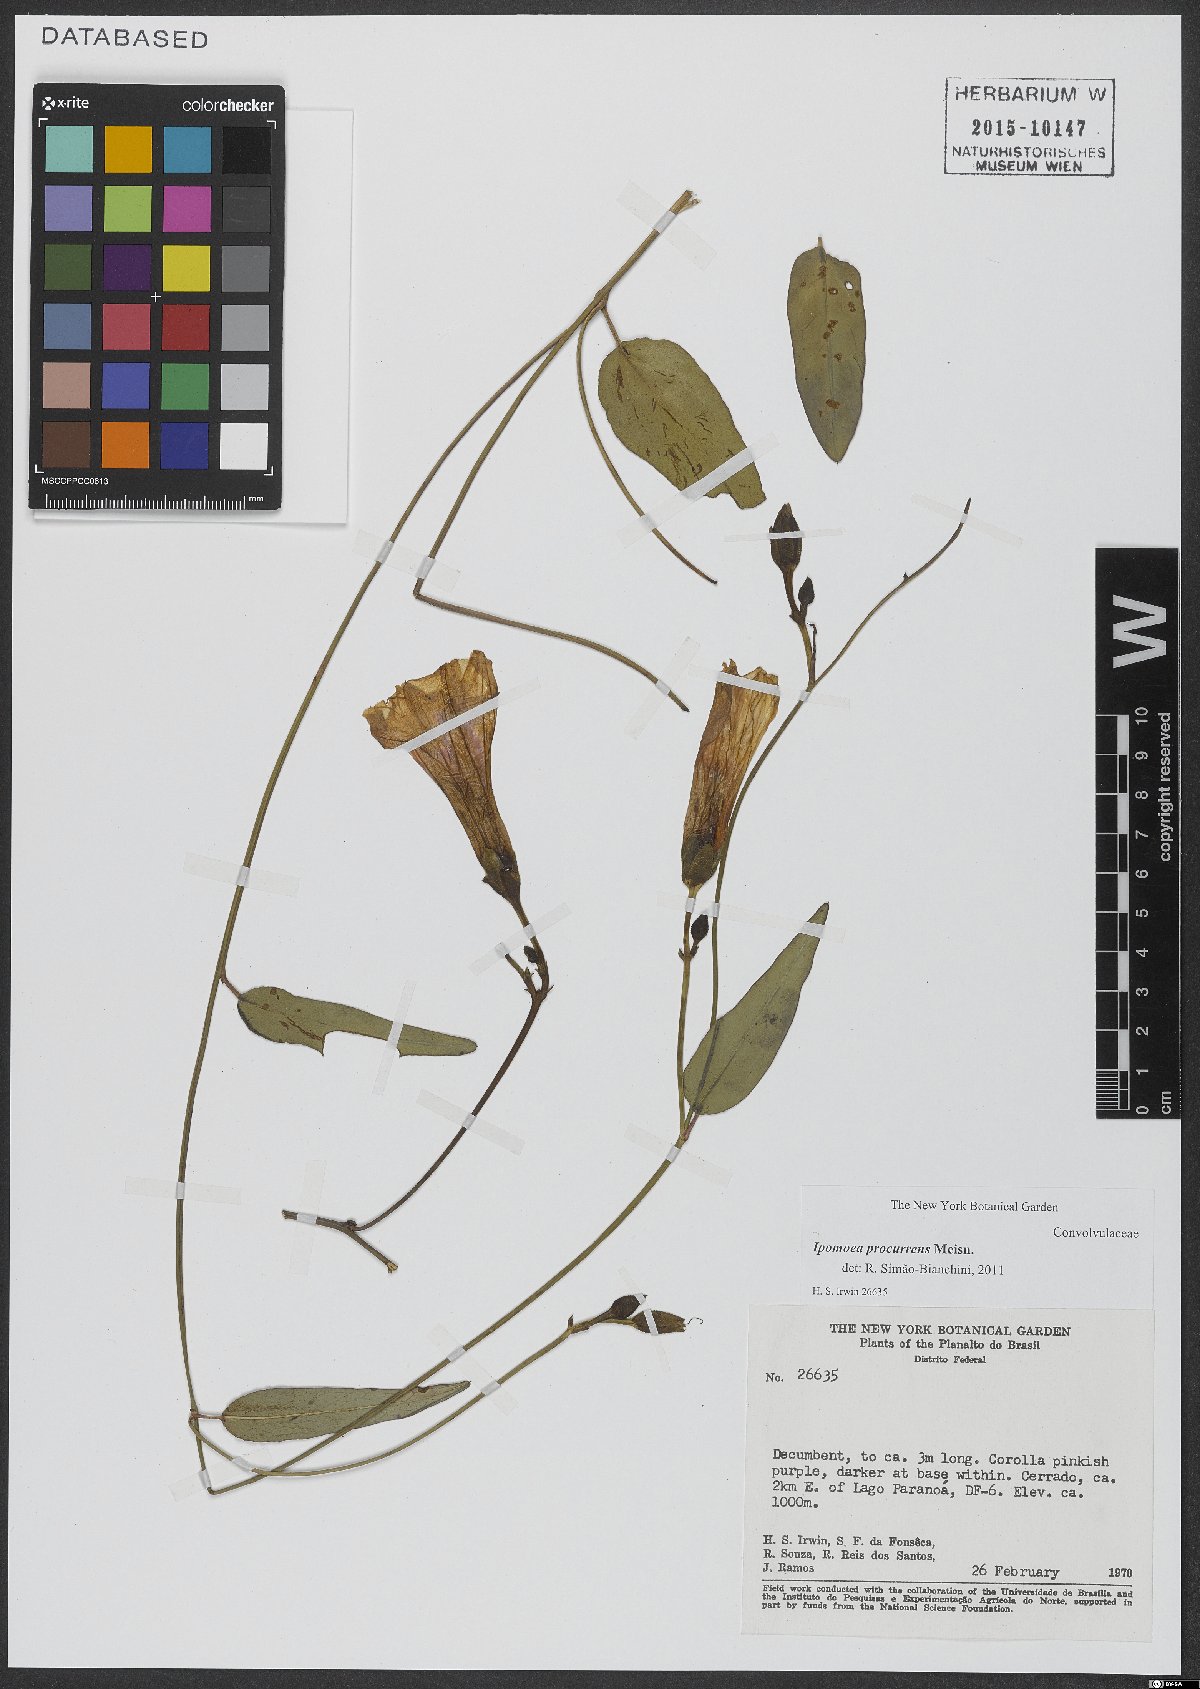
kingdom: Plantae
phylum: Tracheophyta
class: Magnoliopsida
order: Solanales
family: Convolvulaceae
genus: Ipomoea
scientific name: Ipomoea procurrens
